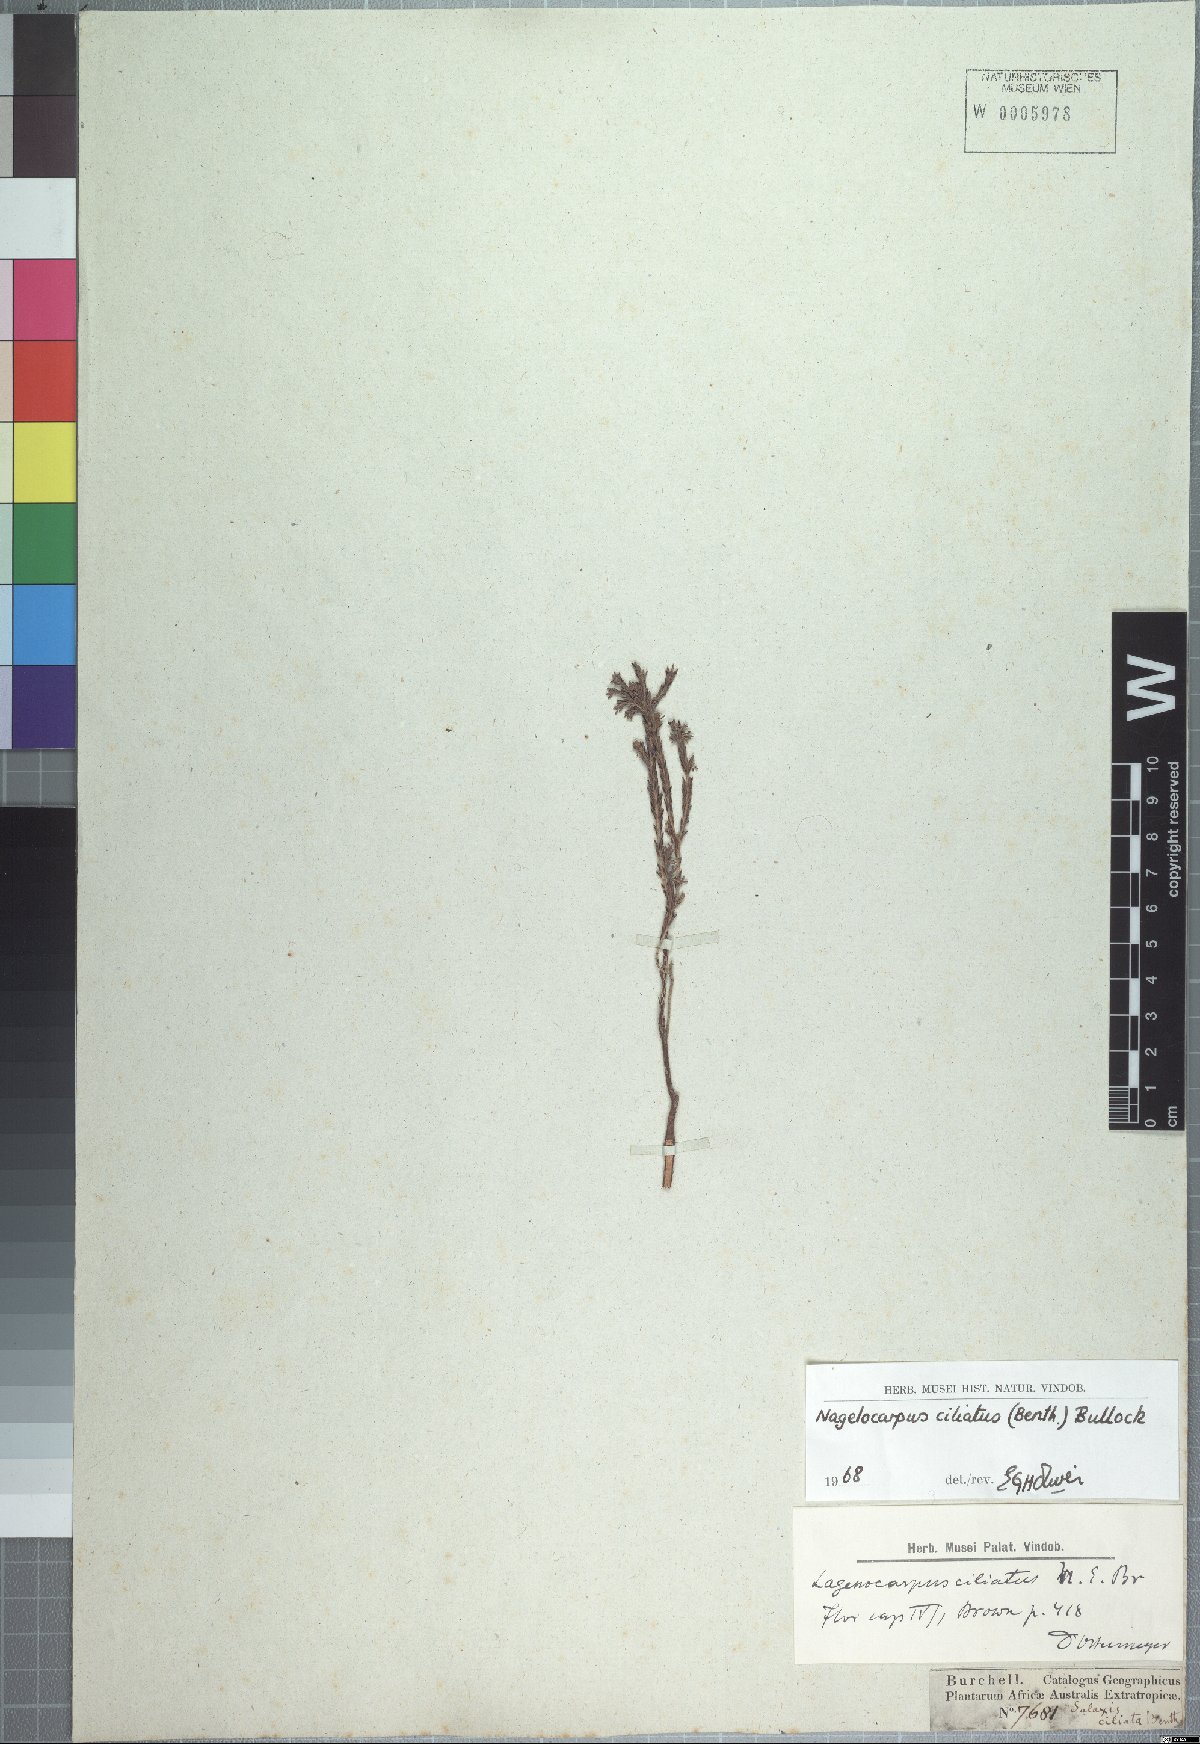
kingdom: Plantae
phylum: Tracheophyta
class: Magnoliopsida
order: Ericales
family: Ericaceae
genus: Erica
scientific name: Erica serrata
